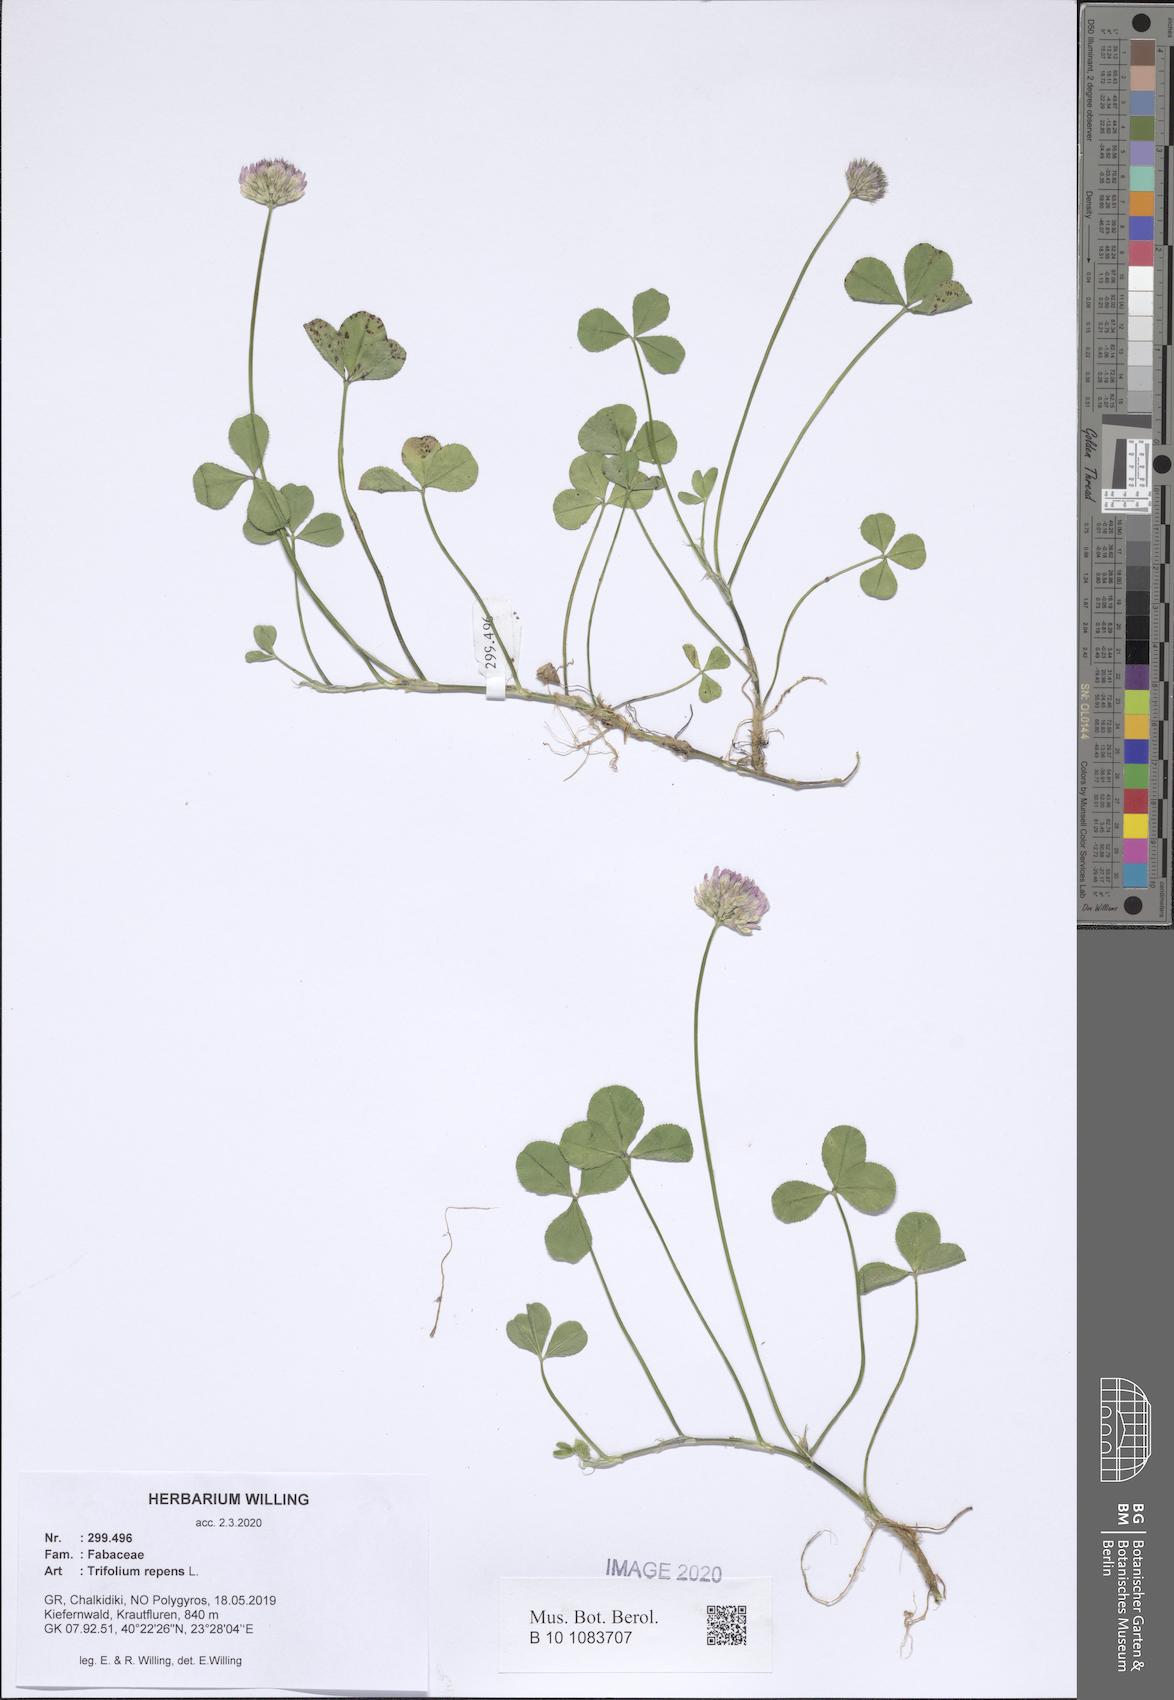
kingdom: Plantae
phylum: Tracheophyta
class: Magnoliopsida
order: Fabales
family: Fabaceae
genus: Trifolium
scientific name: Trifolium repens
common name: White clover
